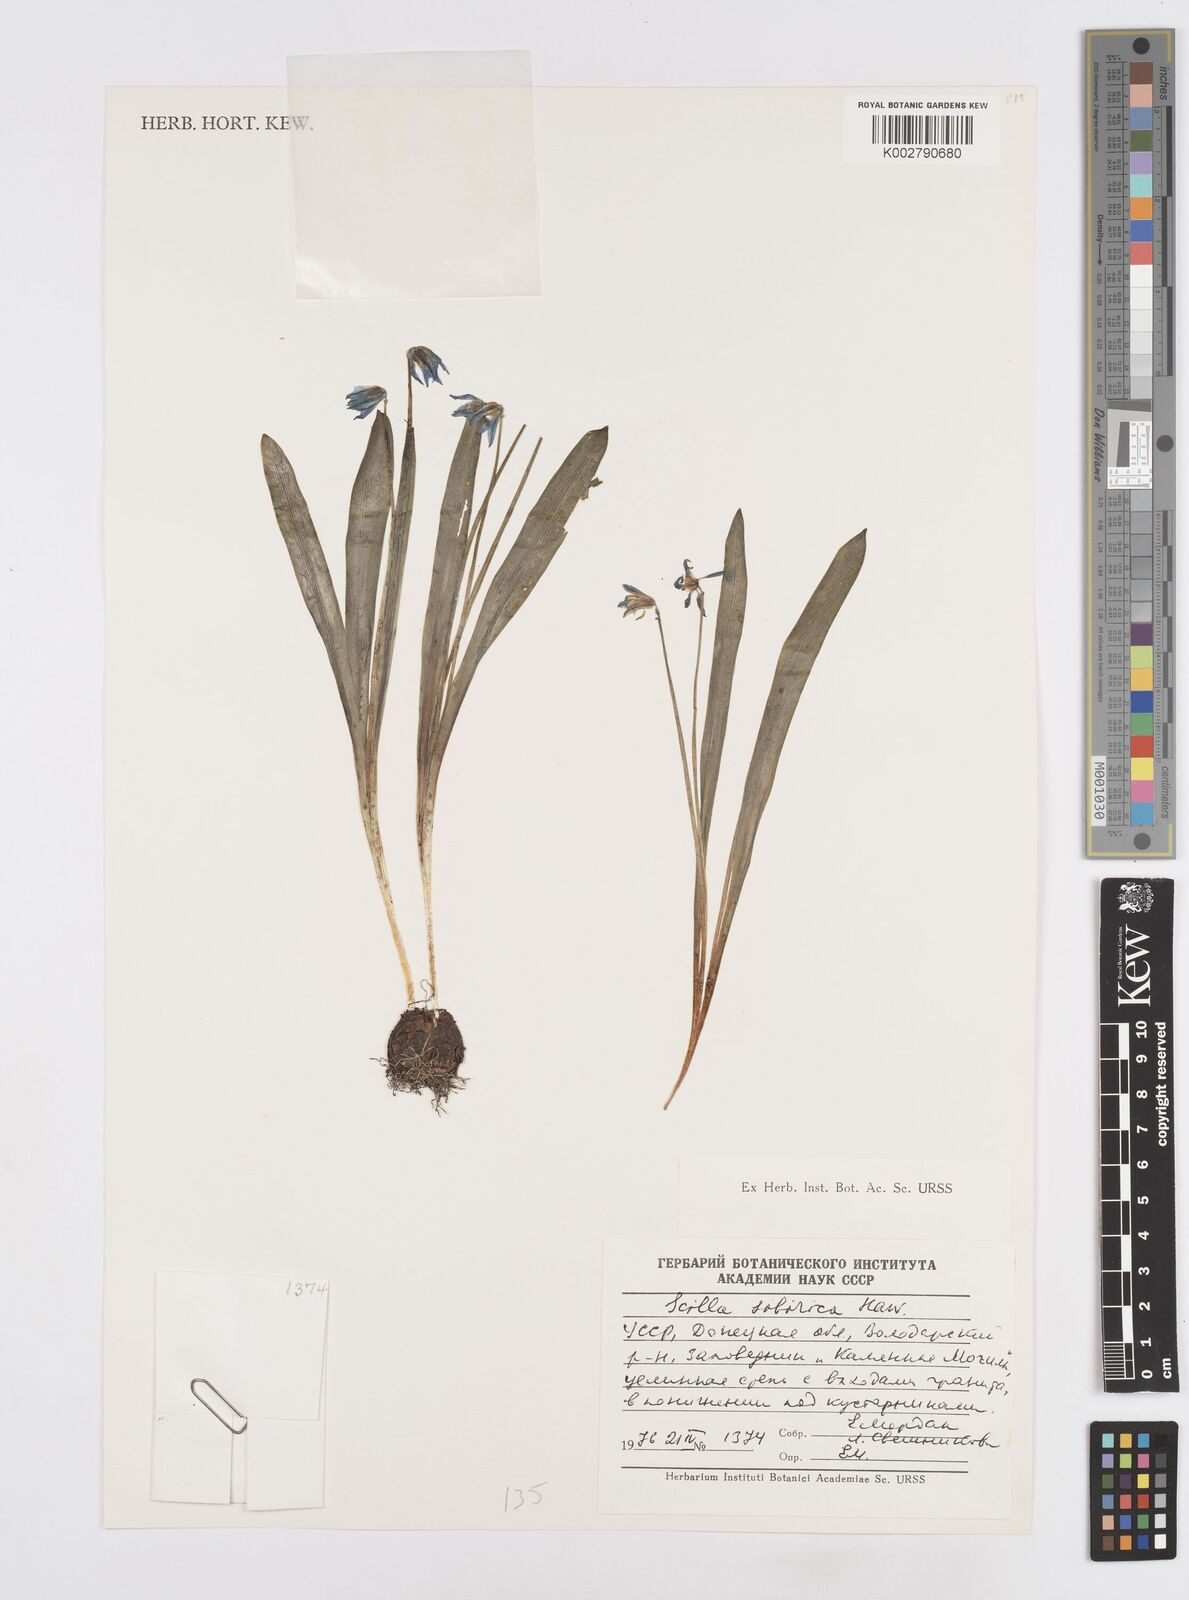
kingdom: Plantae
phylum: Tracheophyta
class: Liliopsida
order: Asparagales
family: Asparagaceae
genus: Scilla
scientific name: Scilla siberica
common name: Siberian squill
